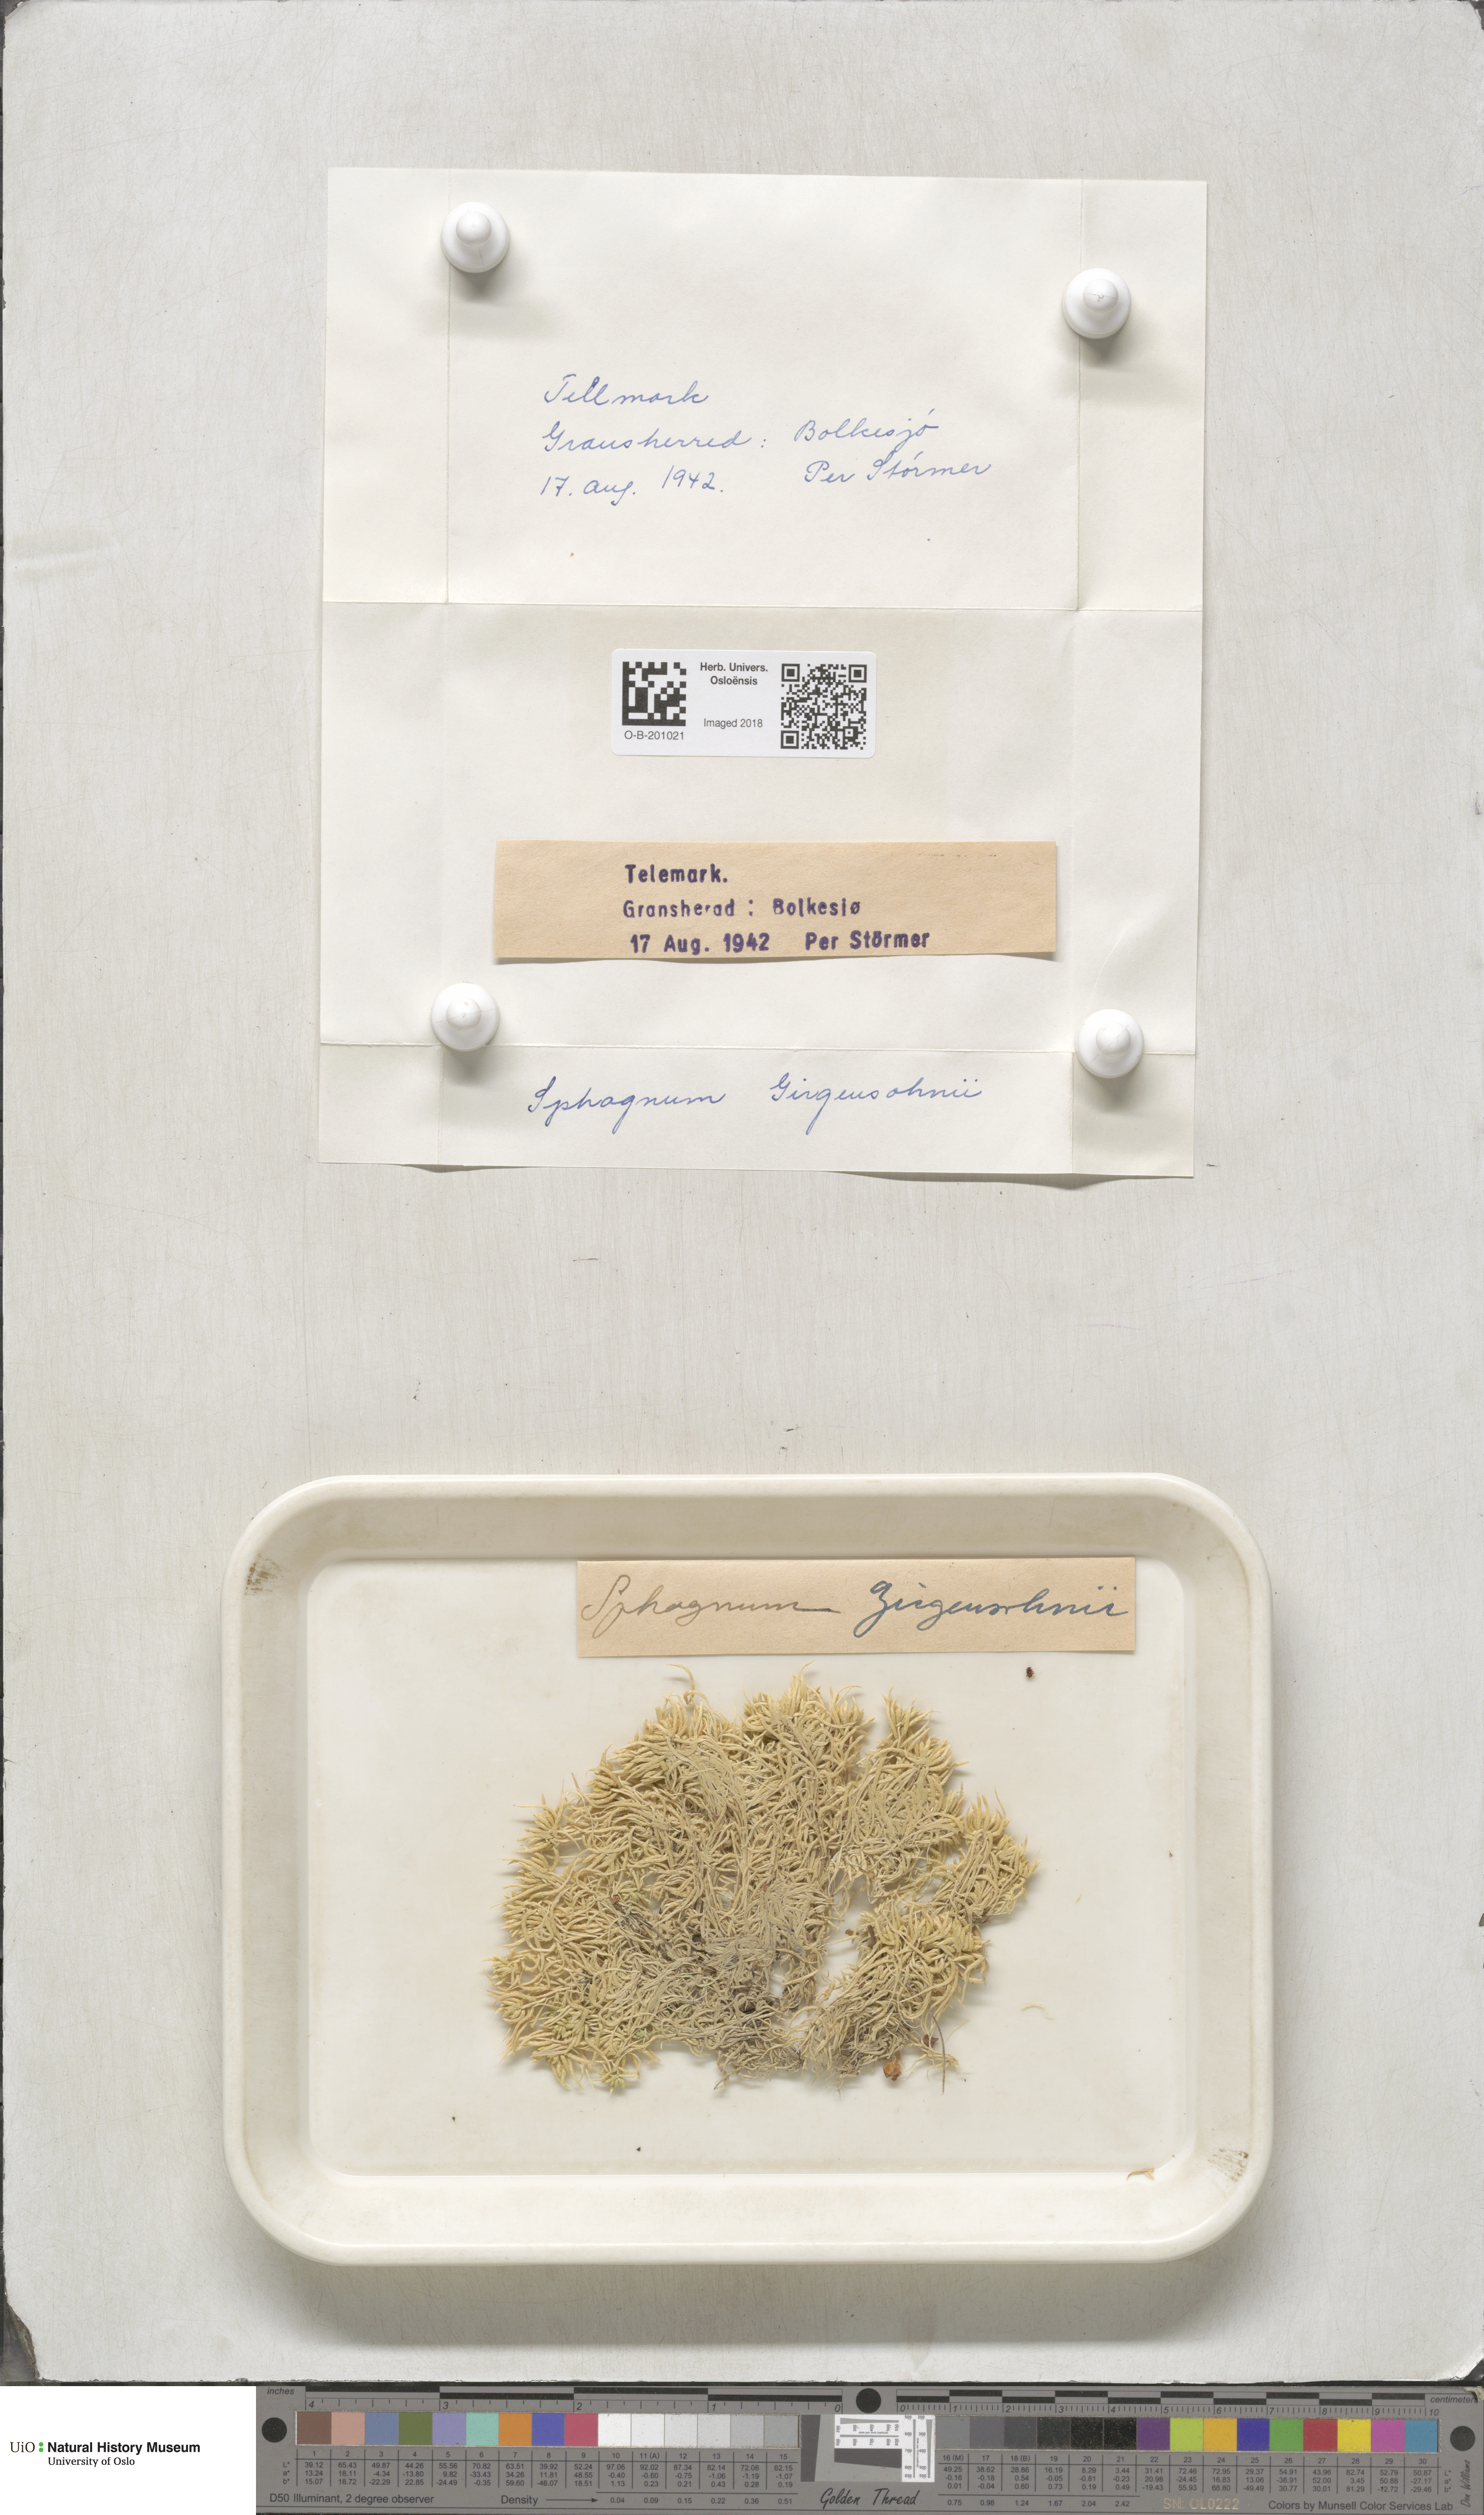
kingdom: Plantae
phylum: Bryophyta
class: Sphagnopsida
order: Sphagnales
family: Sphagnaceae
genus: Sphagnum
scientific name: Sphagnum girgensohnii
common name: Girgensohn's peat moss
